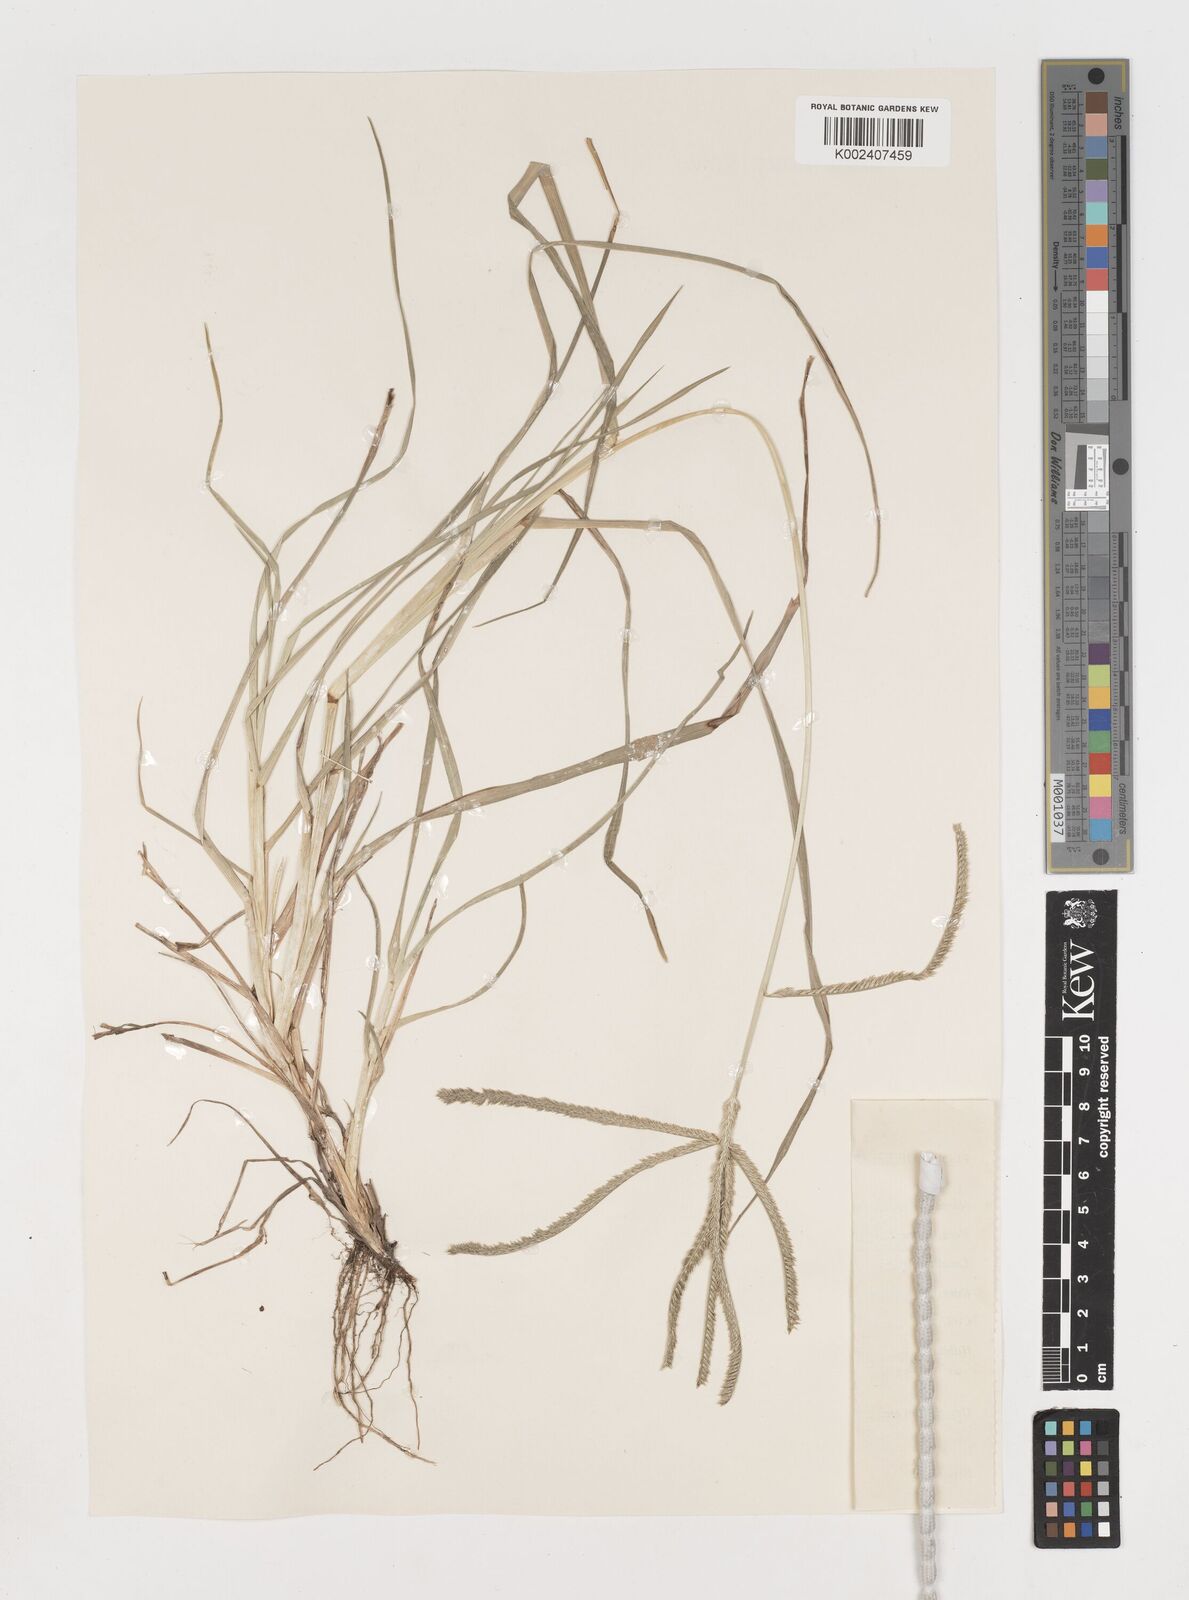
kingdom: Plantae
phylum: Tracheophyta
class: Liliopsida
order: Poales
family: Poaceae
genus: Eleusine
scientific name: Eleusine indica
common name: Yard-grass
